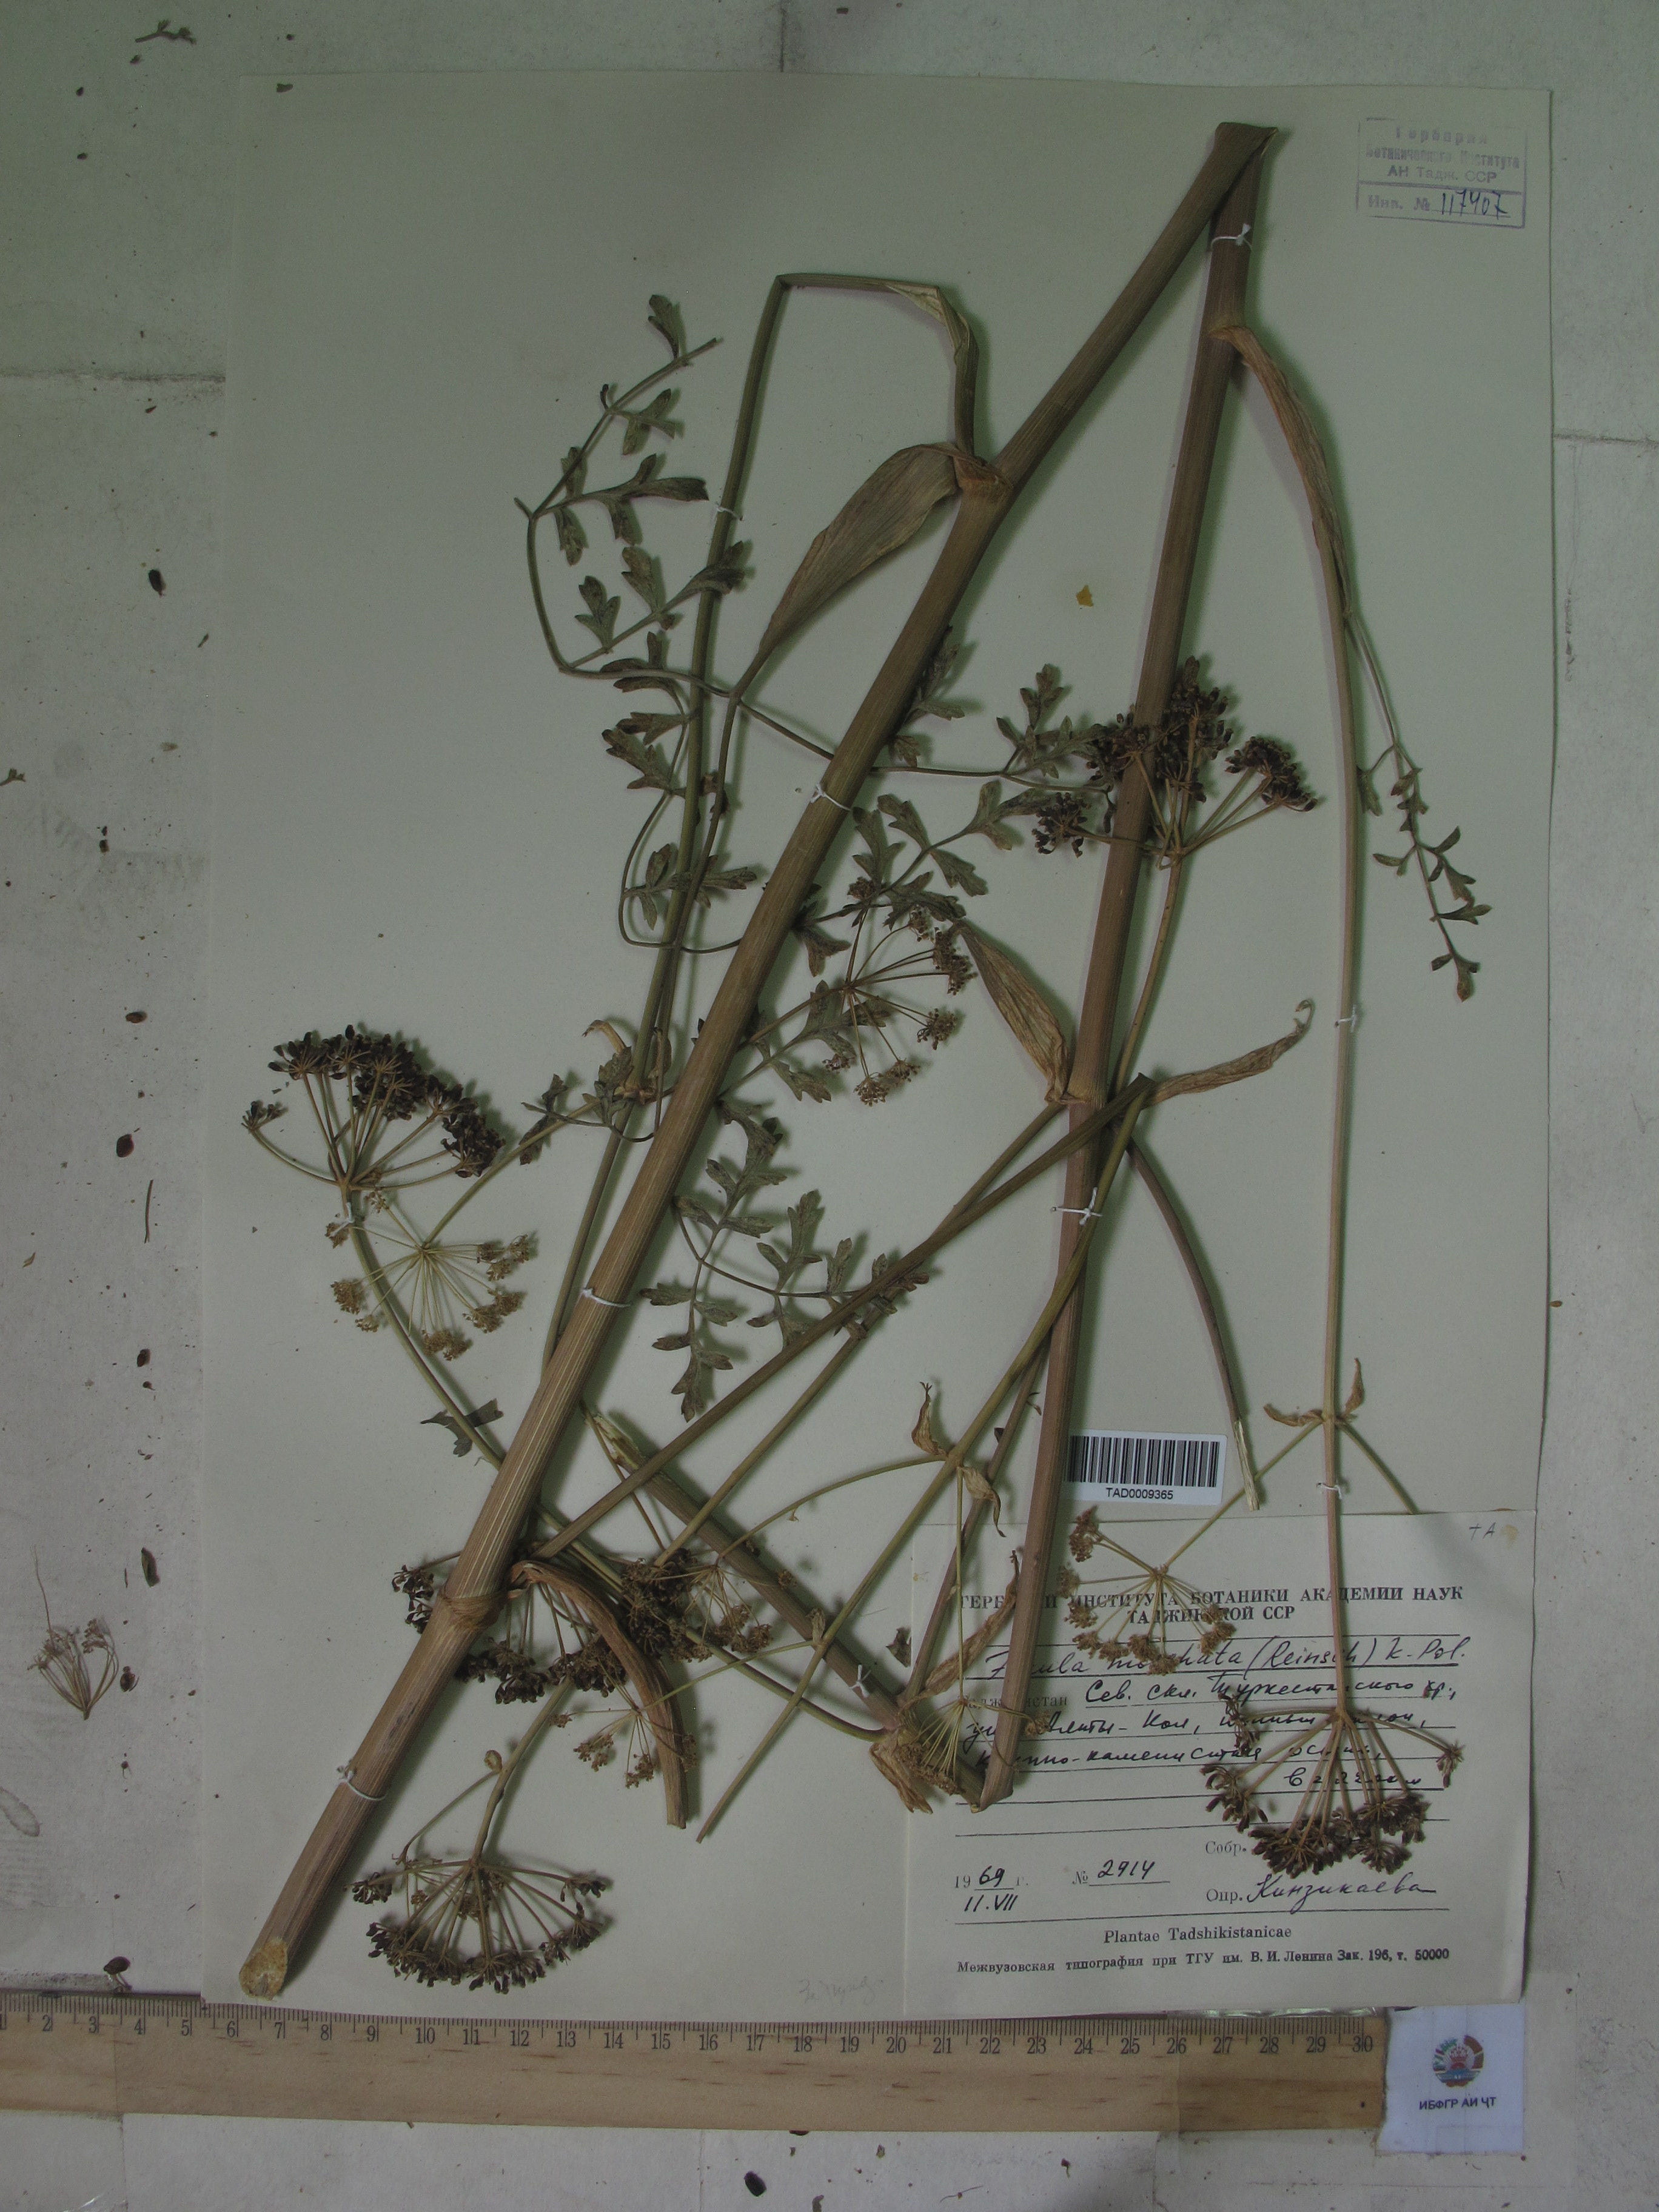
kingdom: Plantae
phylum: Tracheophyta
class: Magnoliopsida
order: Apiales
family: Apiaceae
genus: Ferula
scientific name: Ferula moschata
